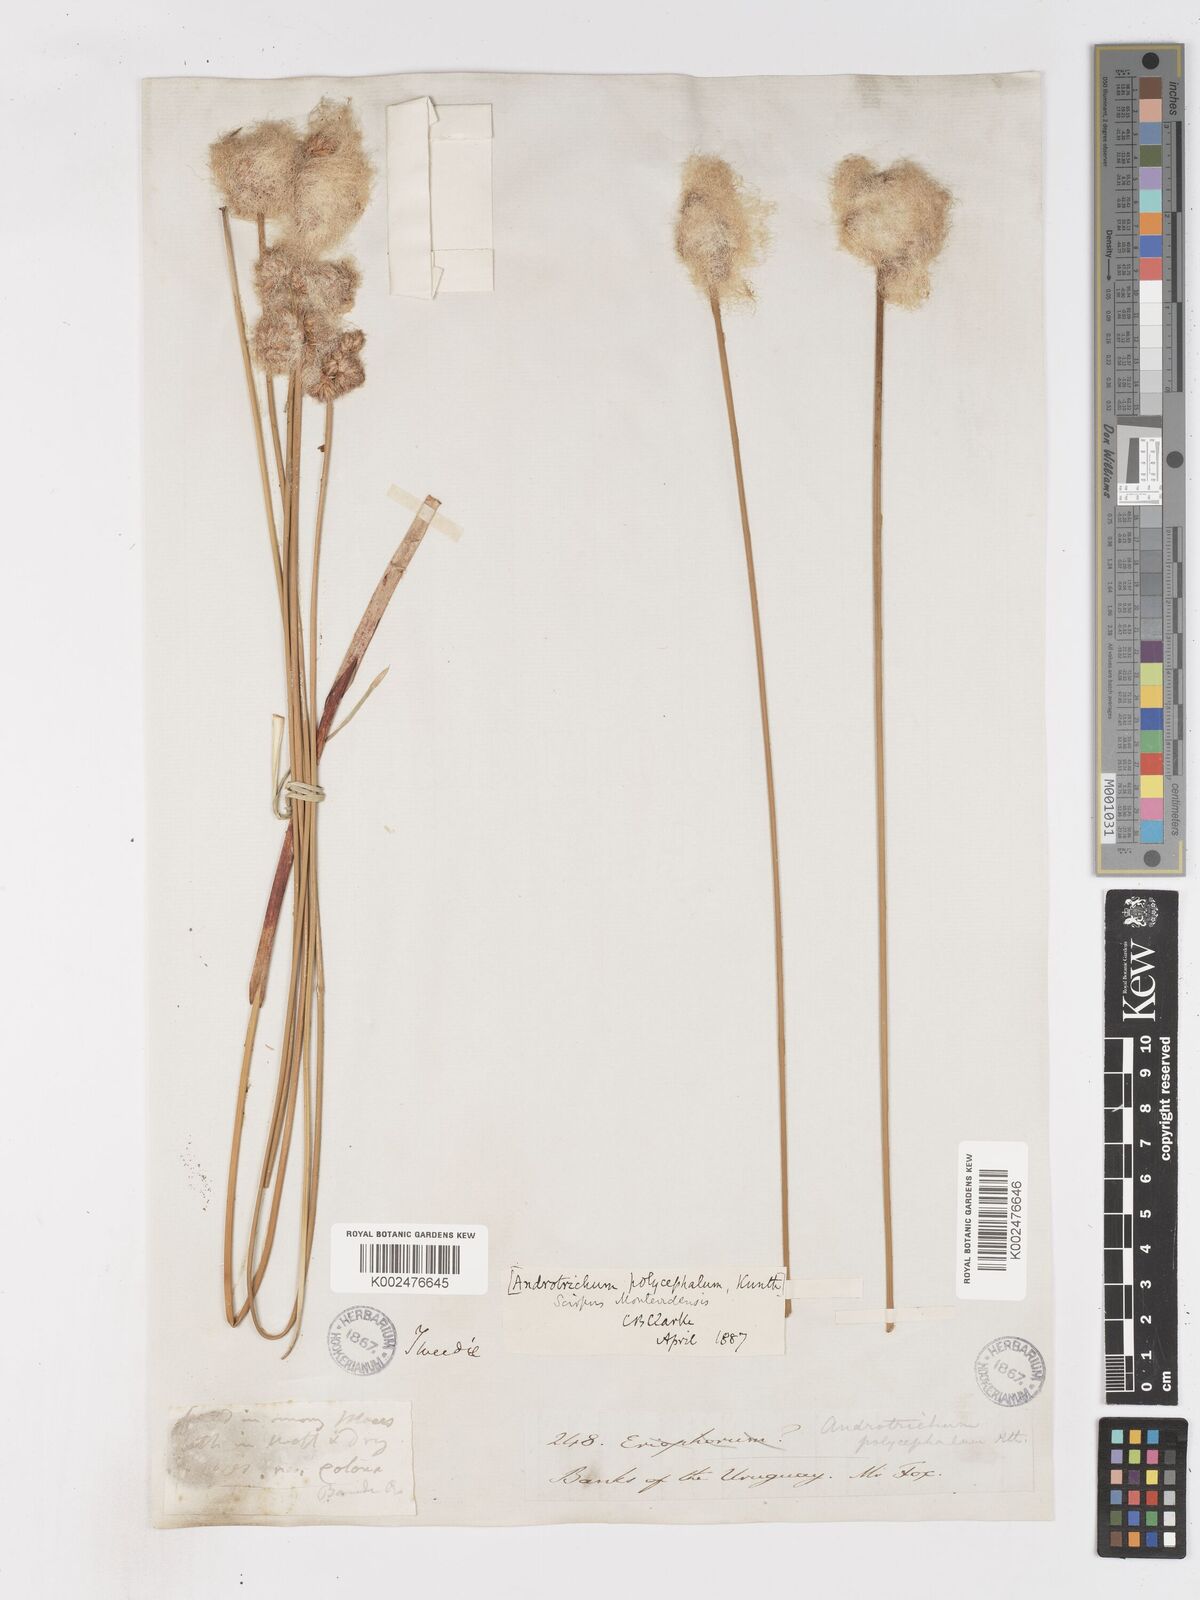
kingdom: Plantae
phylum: Tracheophyta
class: Liliopsida
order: Poales
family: Cyperaceae
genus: Cyperus
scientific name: Cyperus trigynus
